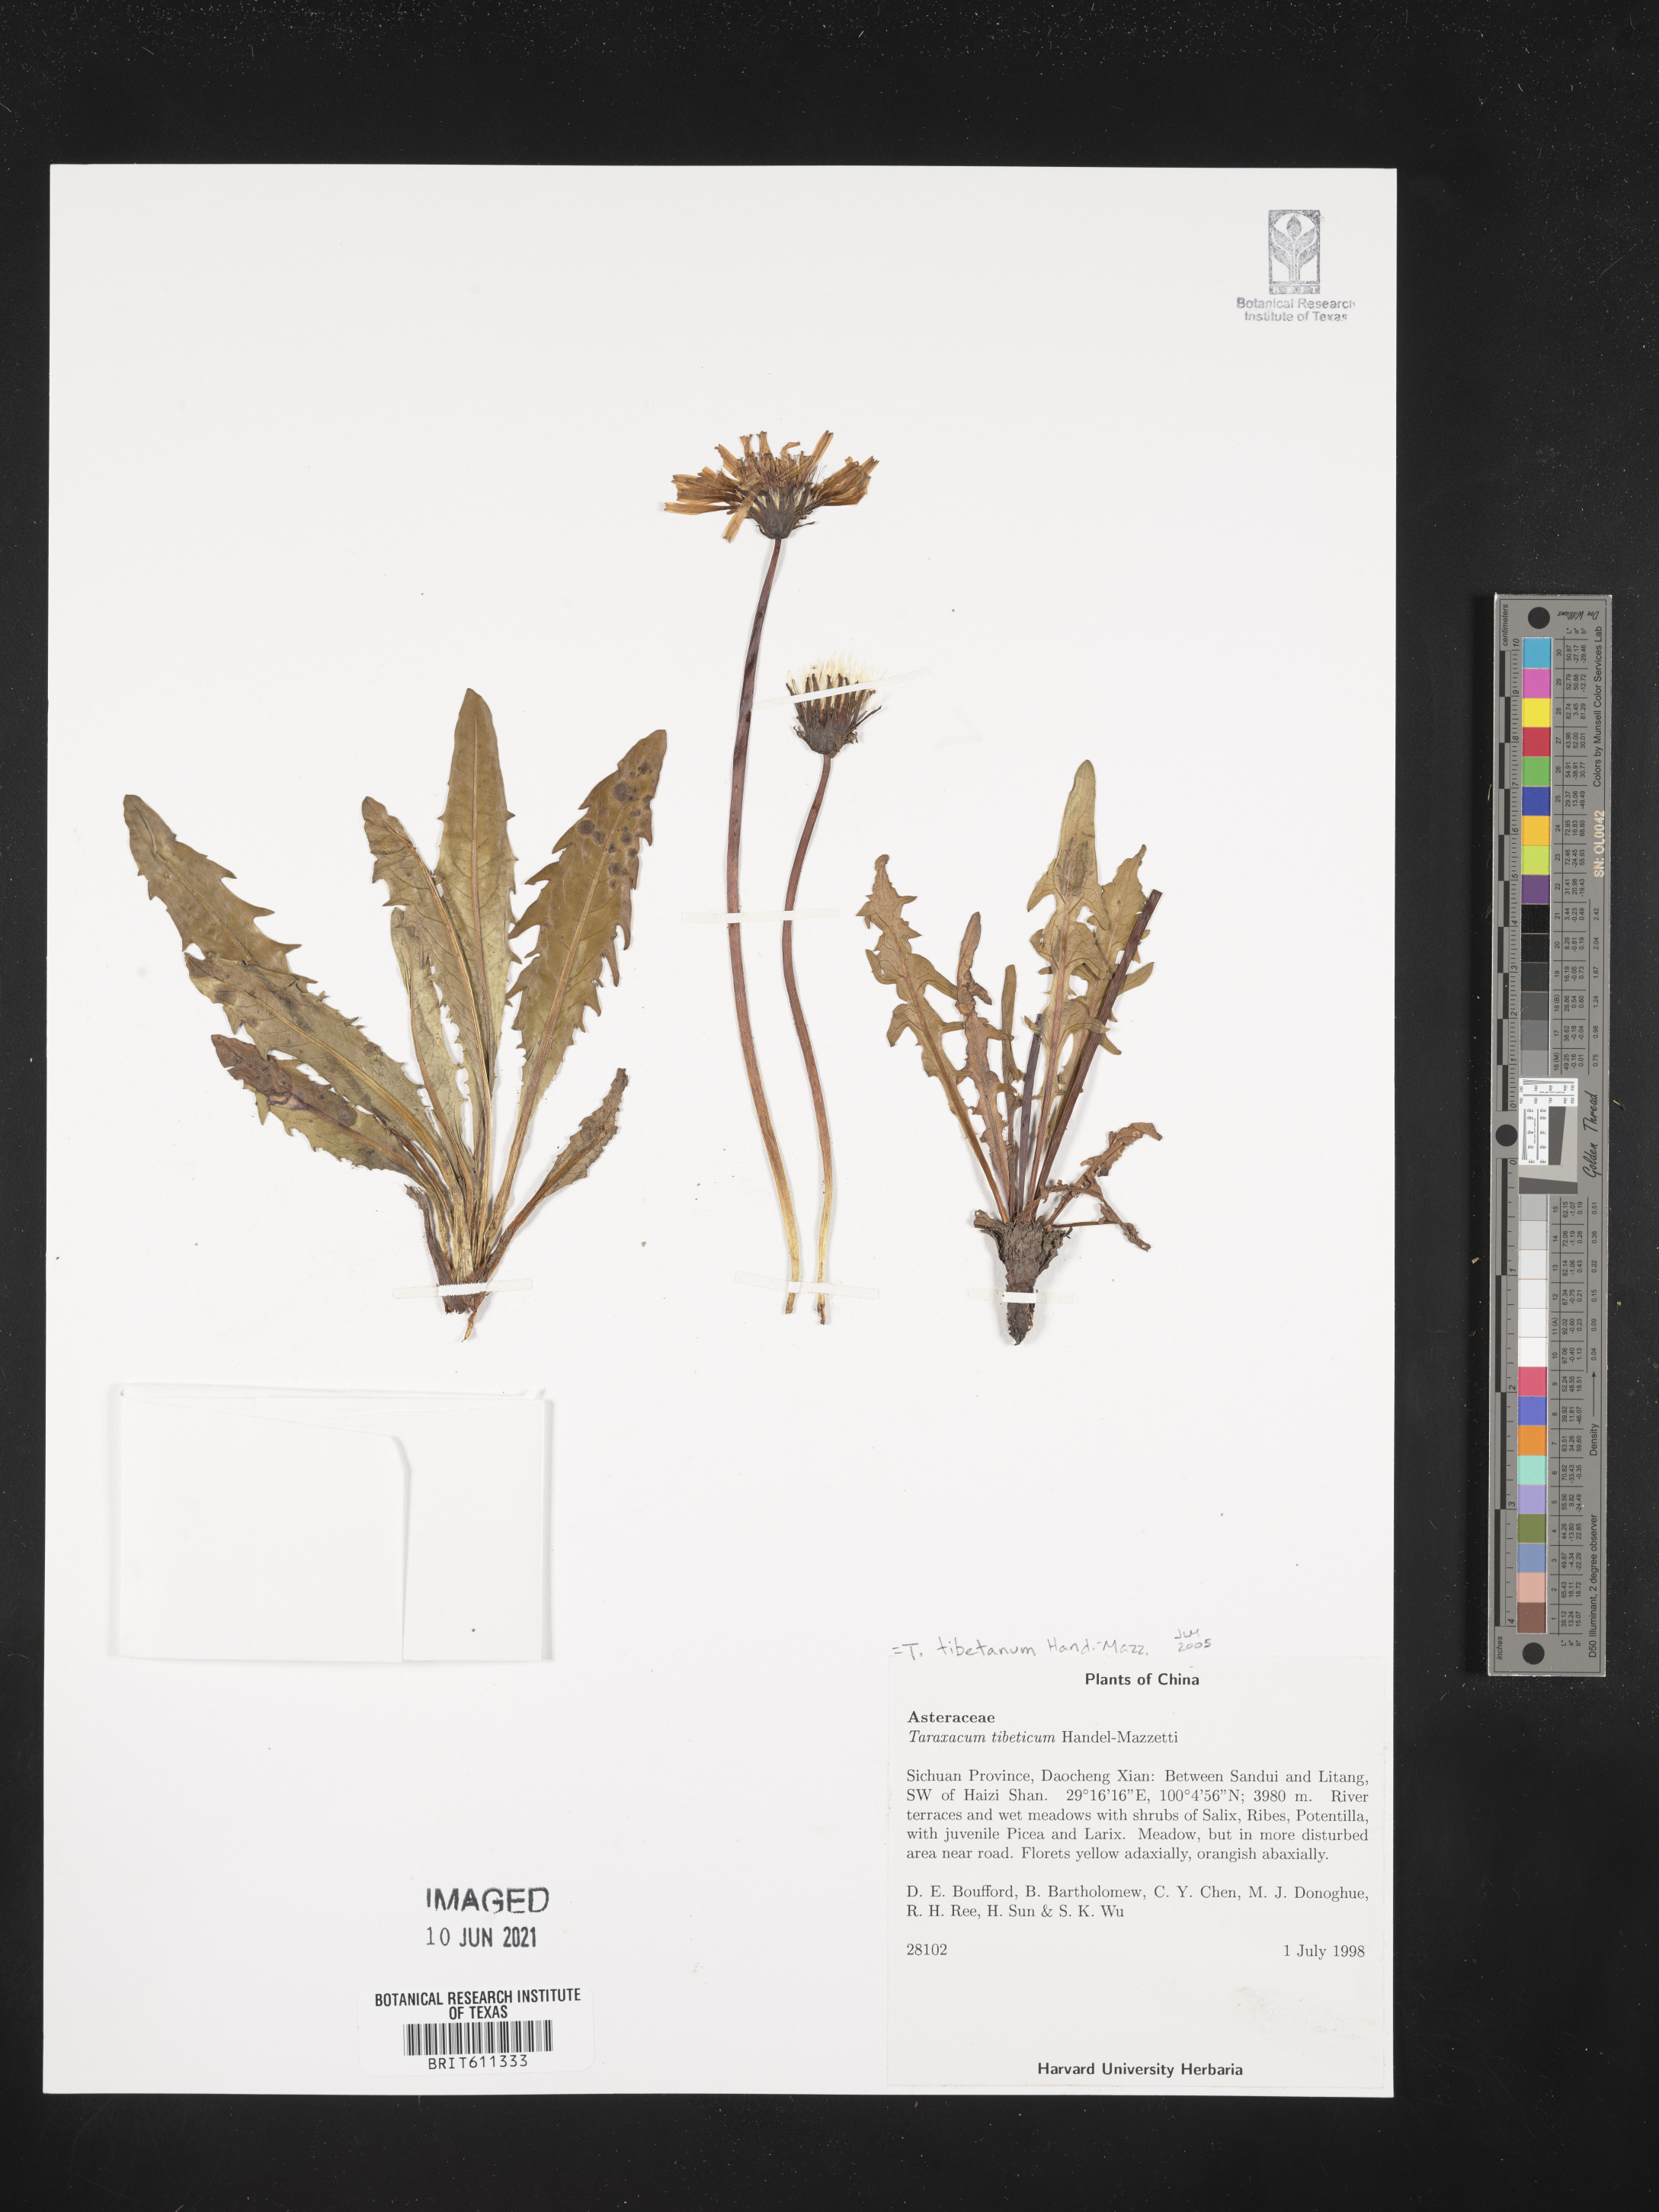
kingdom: Plantae
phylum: Tracheophyta
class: Magnoliopsida
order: Asterales
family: Asteraceae
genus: Taraxacum
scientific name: Taraxacum tibetanum
